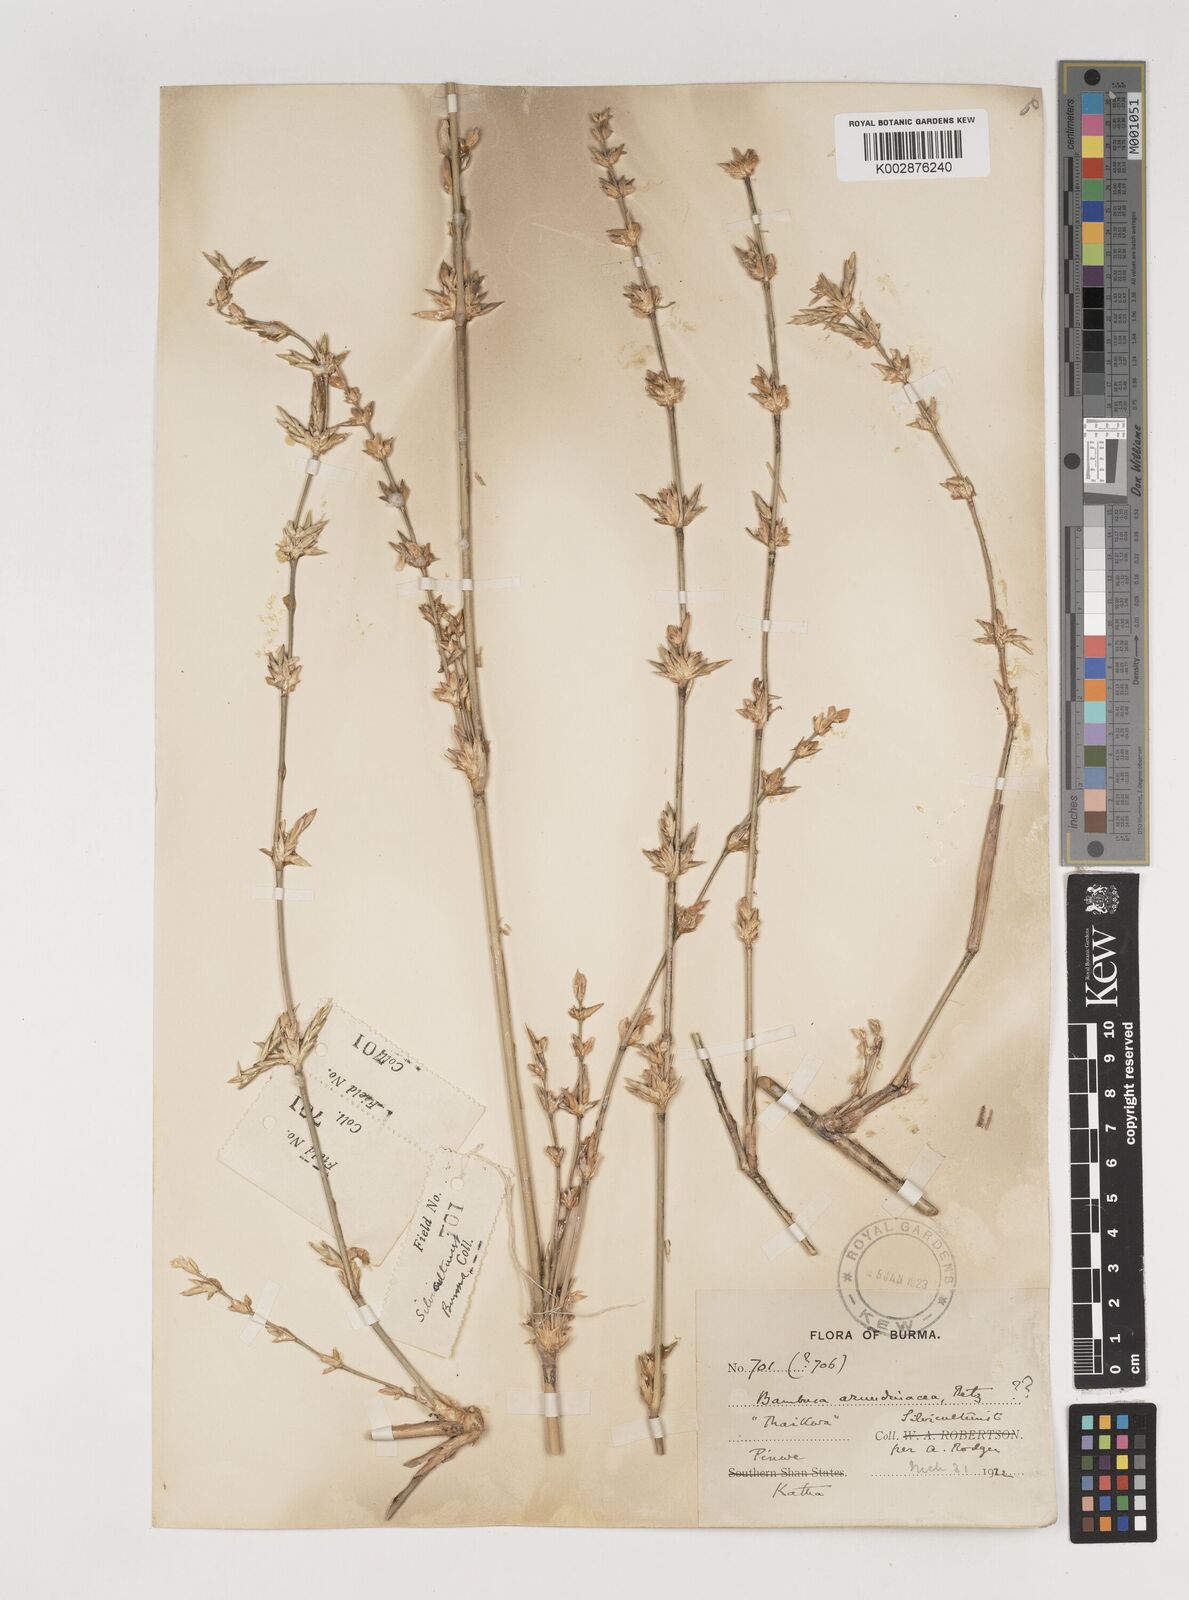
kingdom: Plantae
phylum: Tracheophyta
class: Liliopsida
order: Poales
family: Poaceae
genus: Bambusa
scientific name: Bambusa bambos
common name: Indian thorny bamboo
